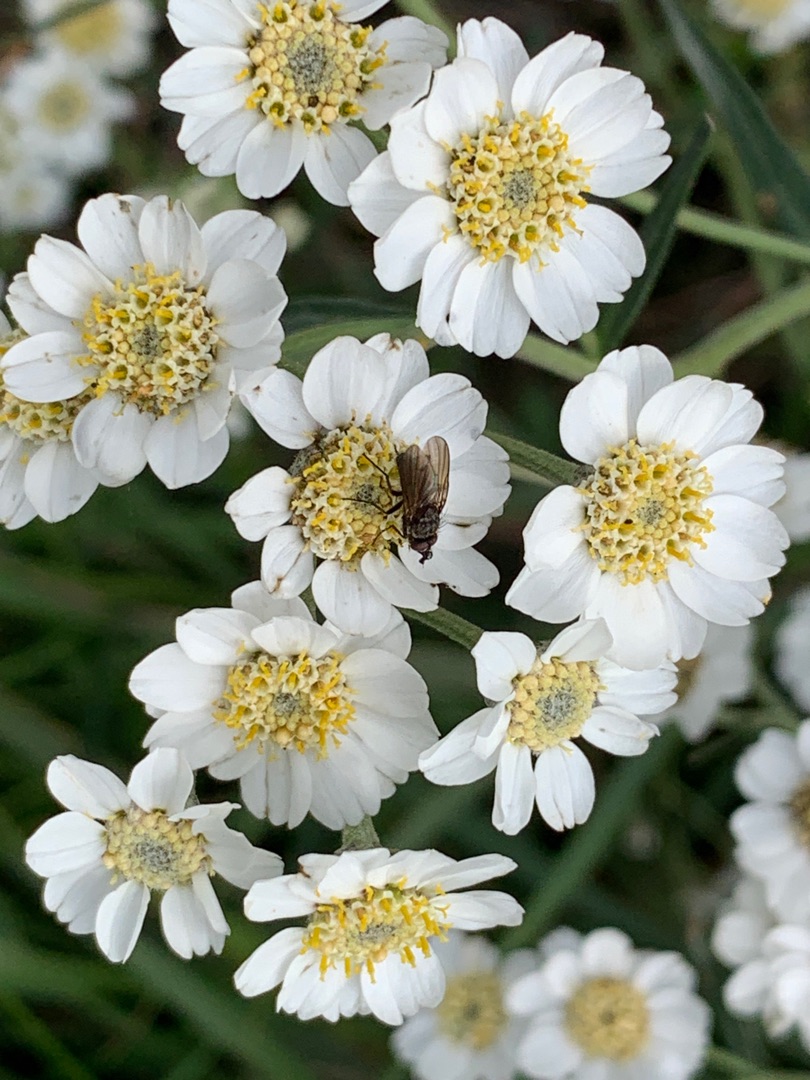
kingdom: Plantae
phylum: Tracheophyta
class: Magnoliopsida
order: Asterales
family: Asteraceae
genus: Achillea
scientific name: Achillea ptarmica
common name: Nyse-røllike
